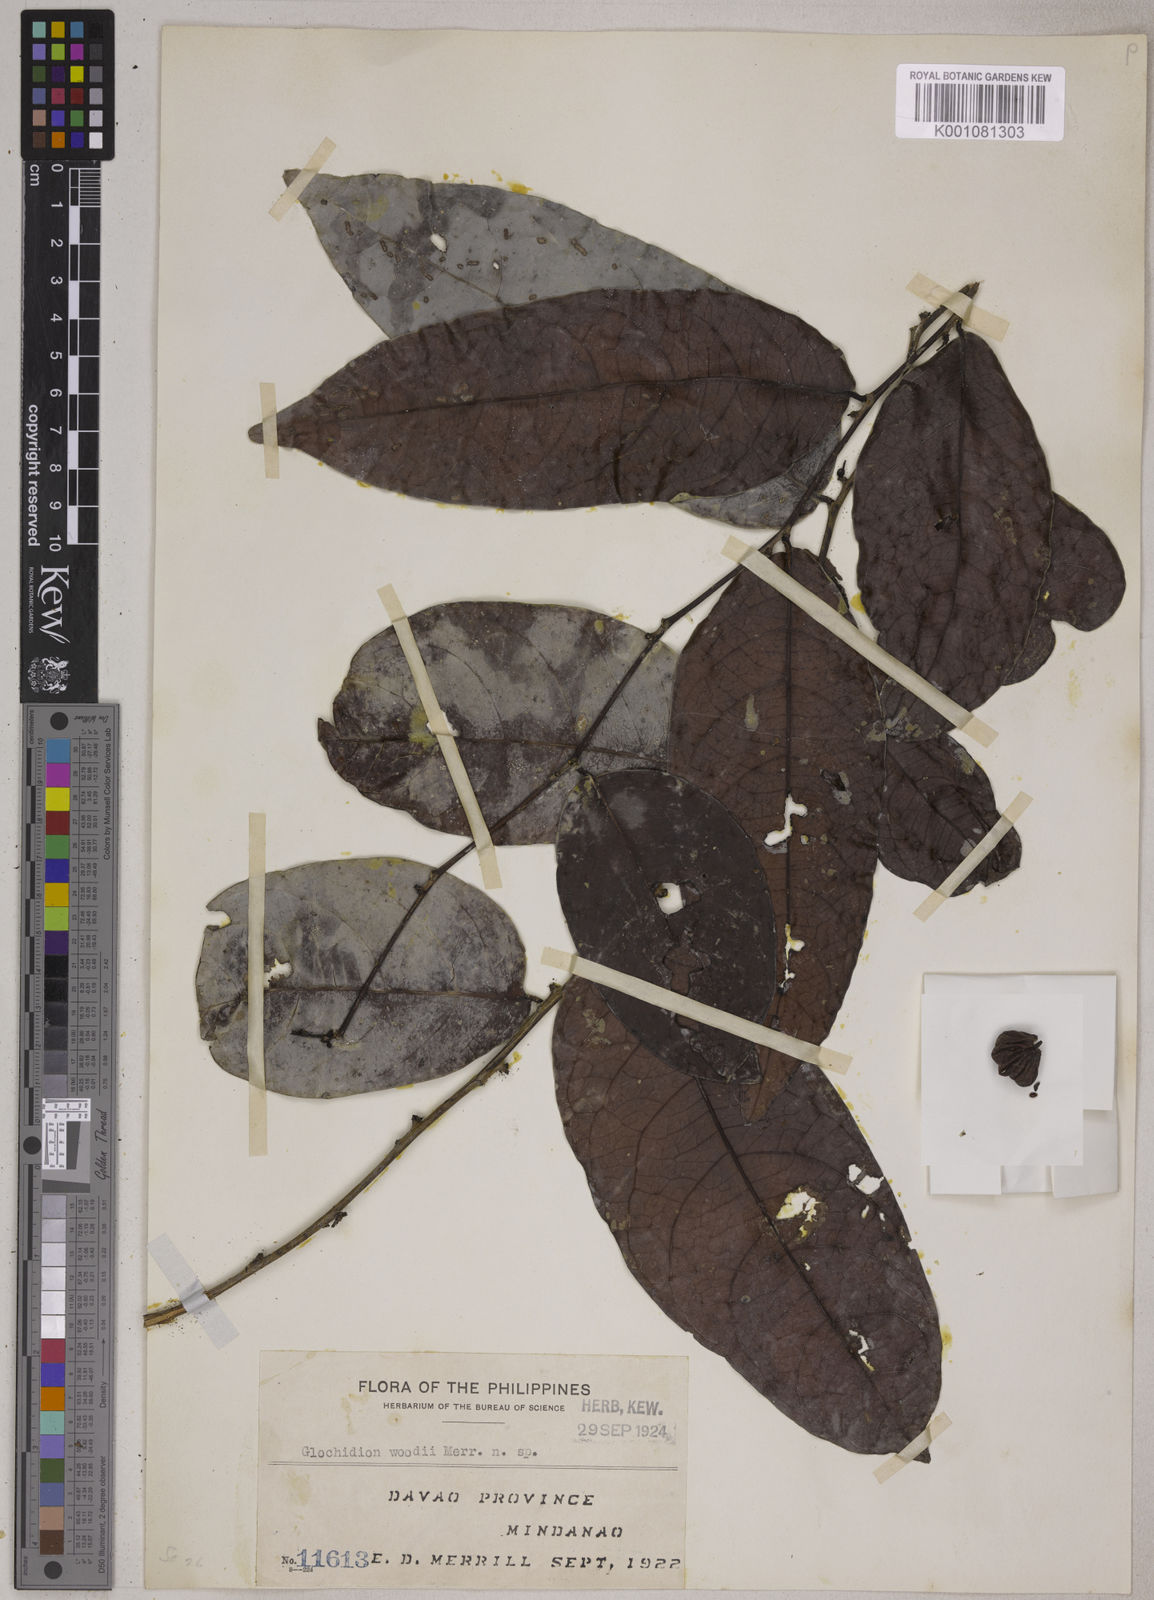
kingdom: Plantae
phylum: Tracheophyta
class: Magnoliopsida
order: Malpighiales
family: Phyllanthaceae
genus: Glochidion
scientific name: Glochidion woodii
